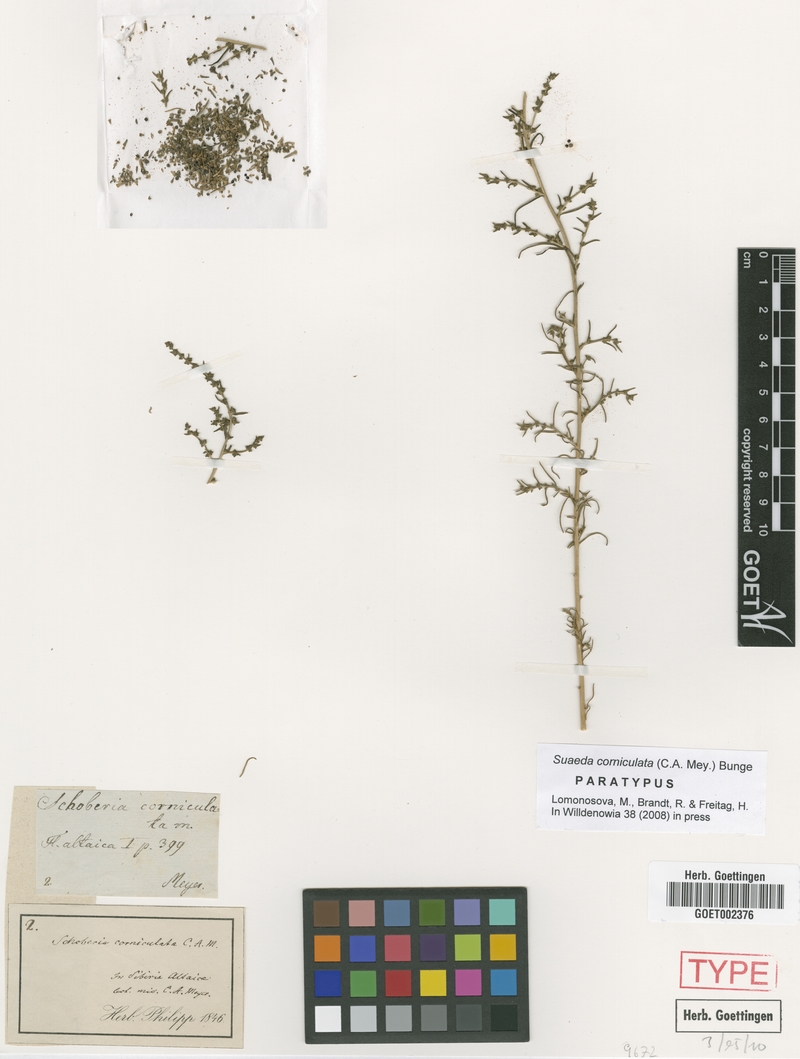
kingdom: Plantae
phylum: Tracheophyta
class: Magnoliopsida
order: Caryophyllales
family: Amaranthaceae
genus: Suaeda
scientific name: Suaeda corniculata
